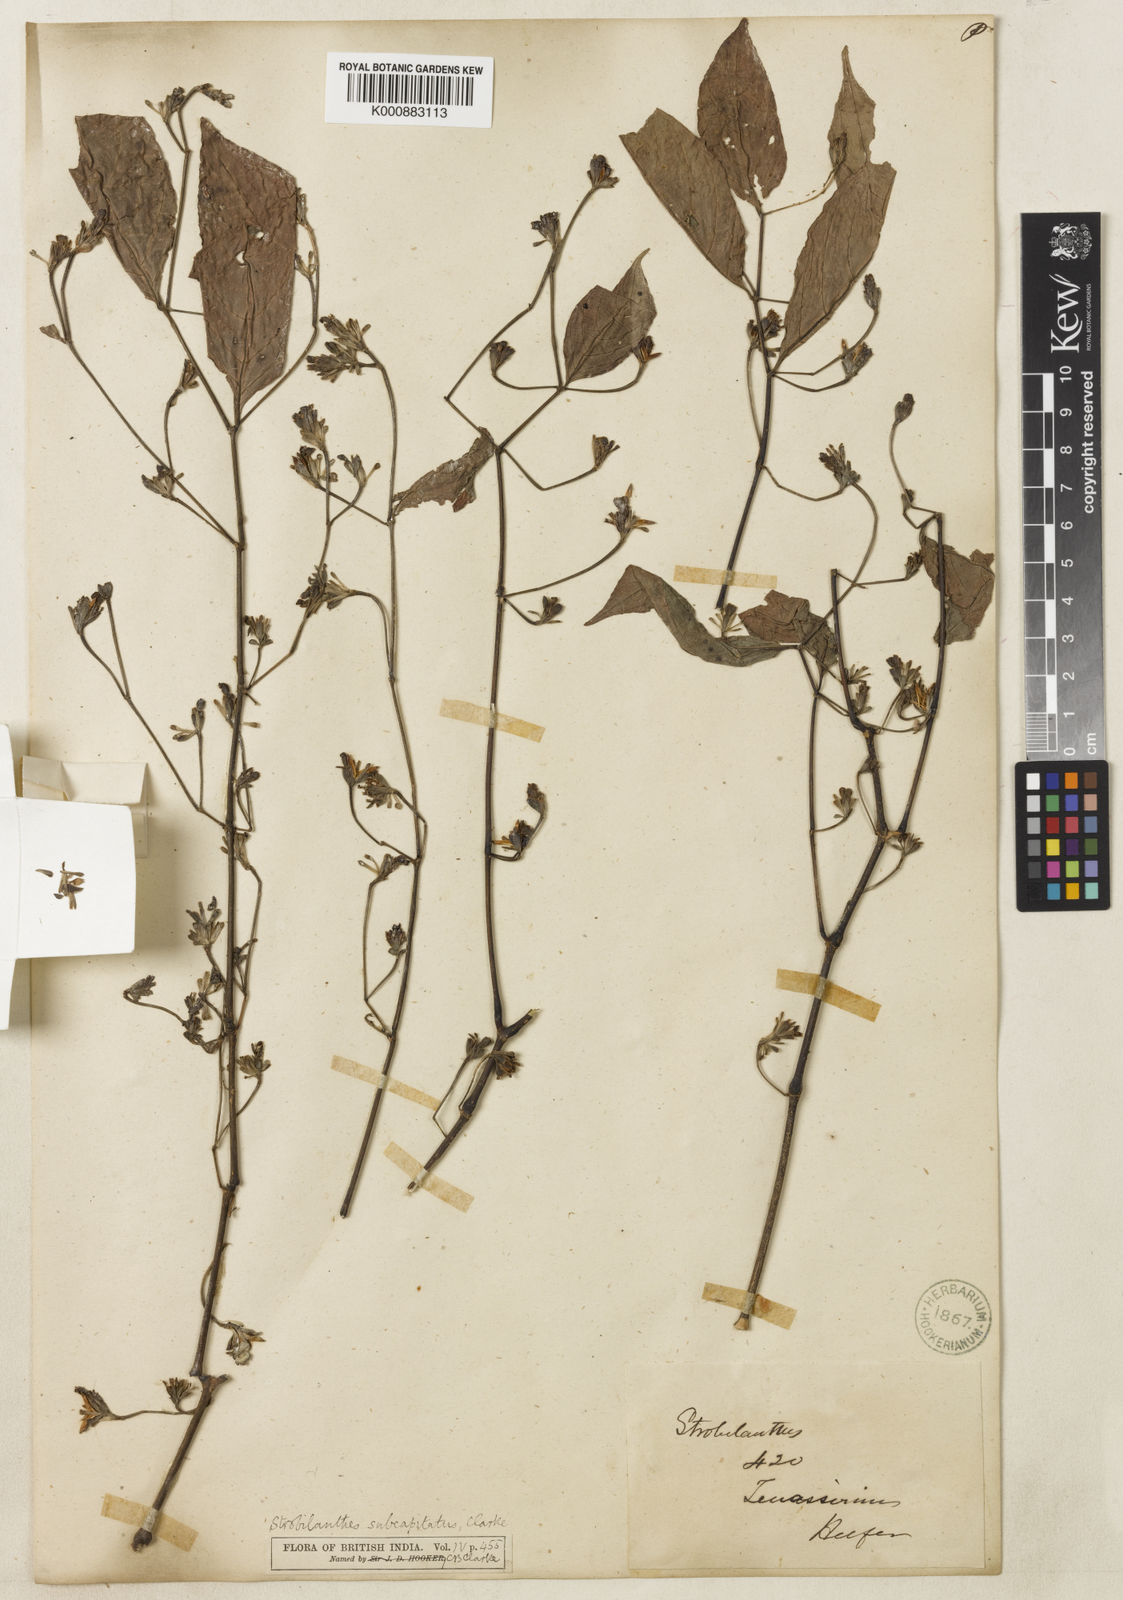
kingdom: Plantae
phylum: Tracheophyta
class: Magnoliopsida
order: Lamiales
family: Acanthaceae
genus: Strobilanthes
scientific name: Strobilanthes paniculata
